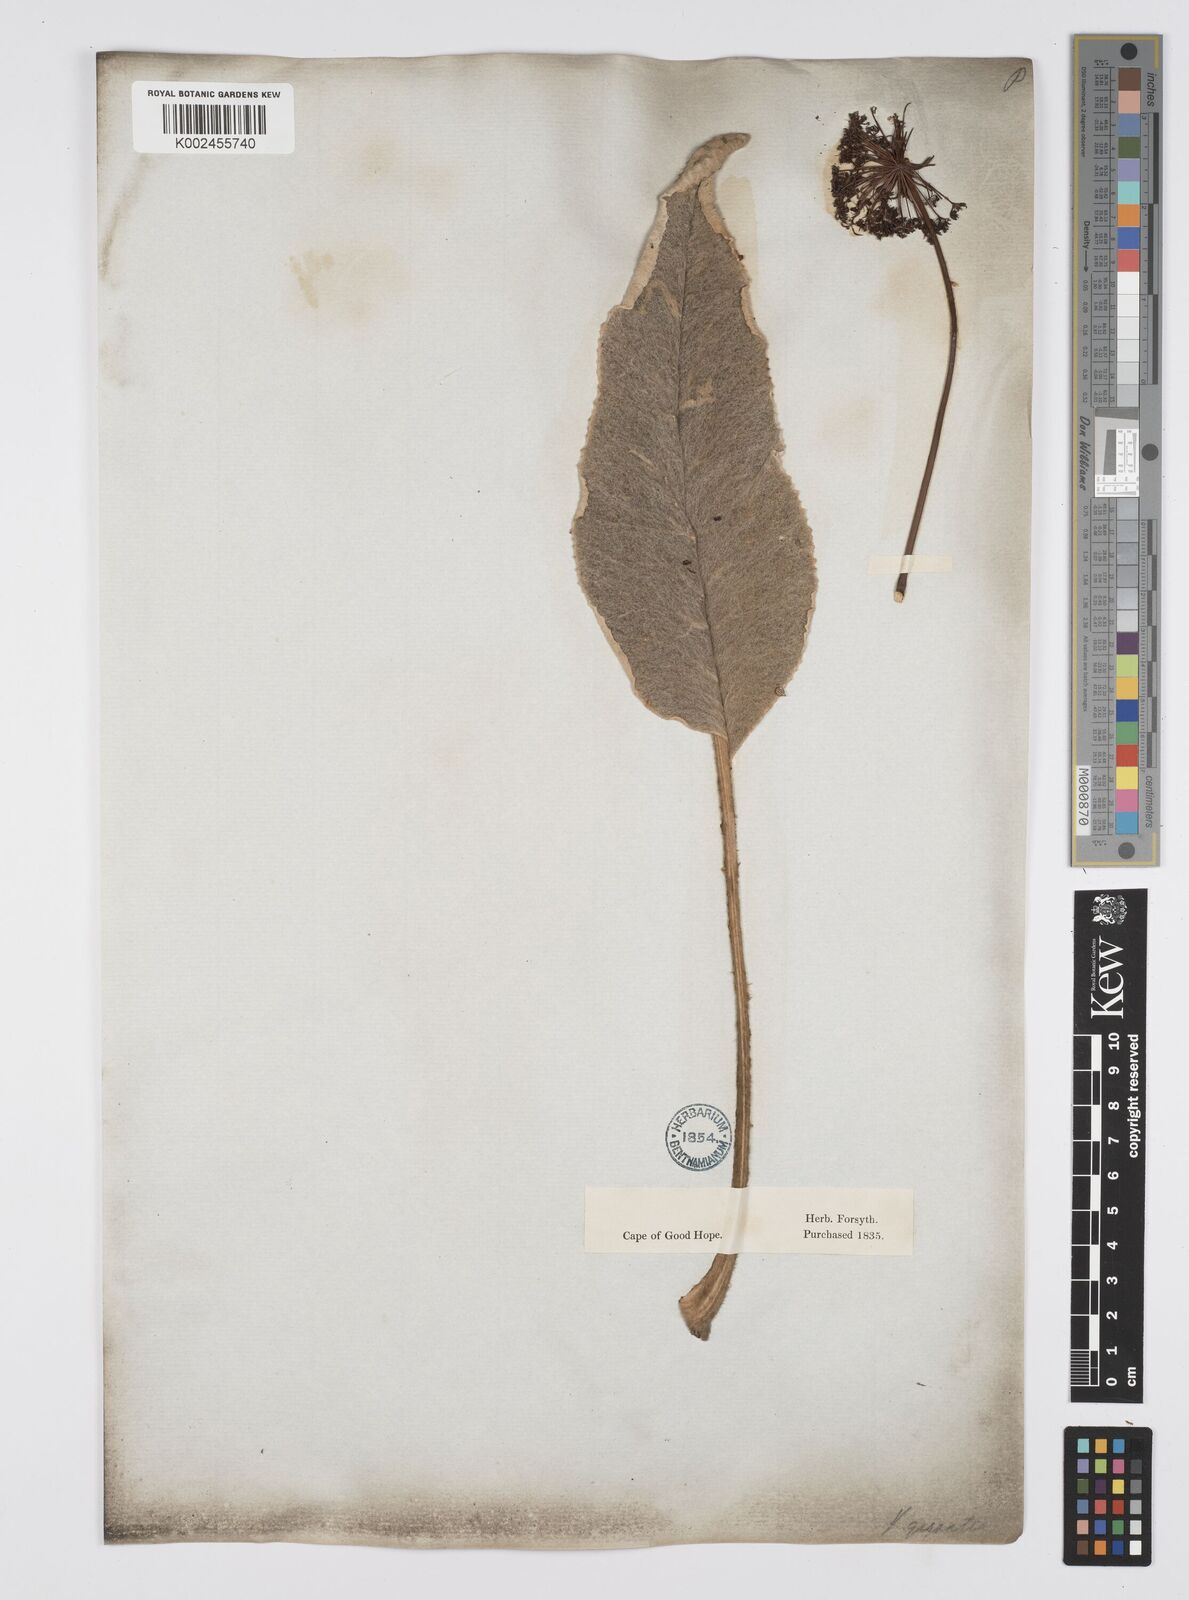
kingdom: Plantae
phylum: Tracheophyta
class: Magnoliopsida
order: Apiales
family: Apiaceae
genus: Hermas
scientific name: Hermas gigantea
